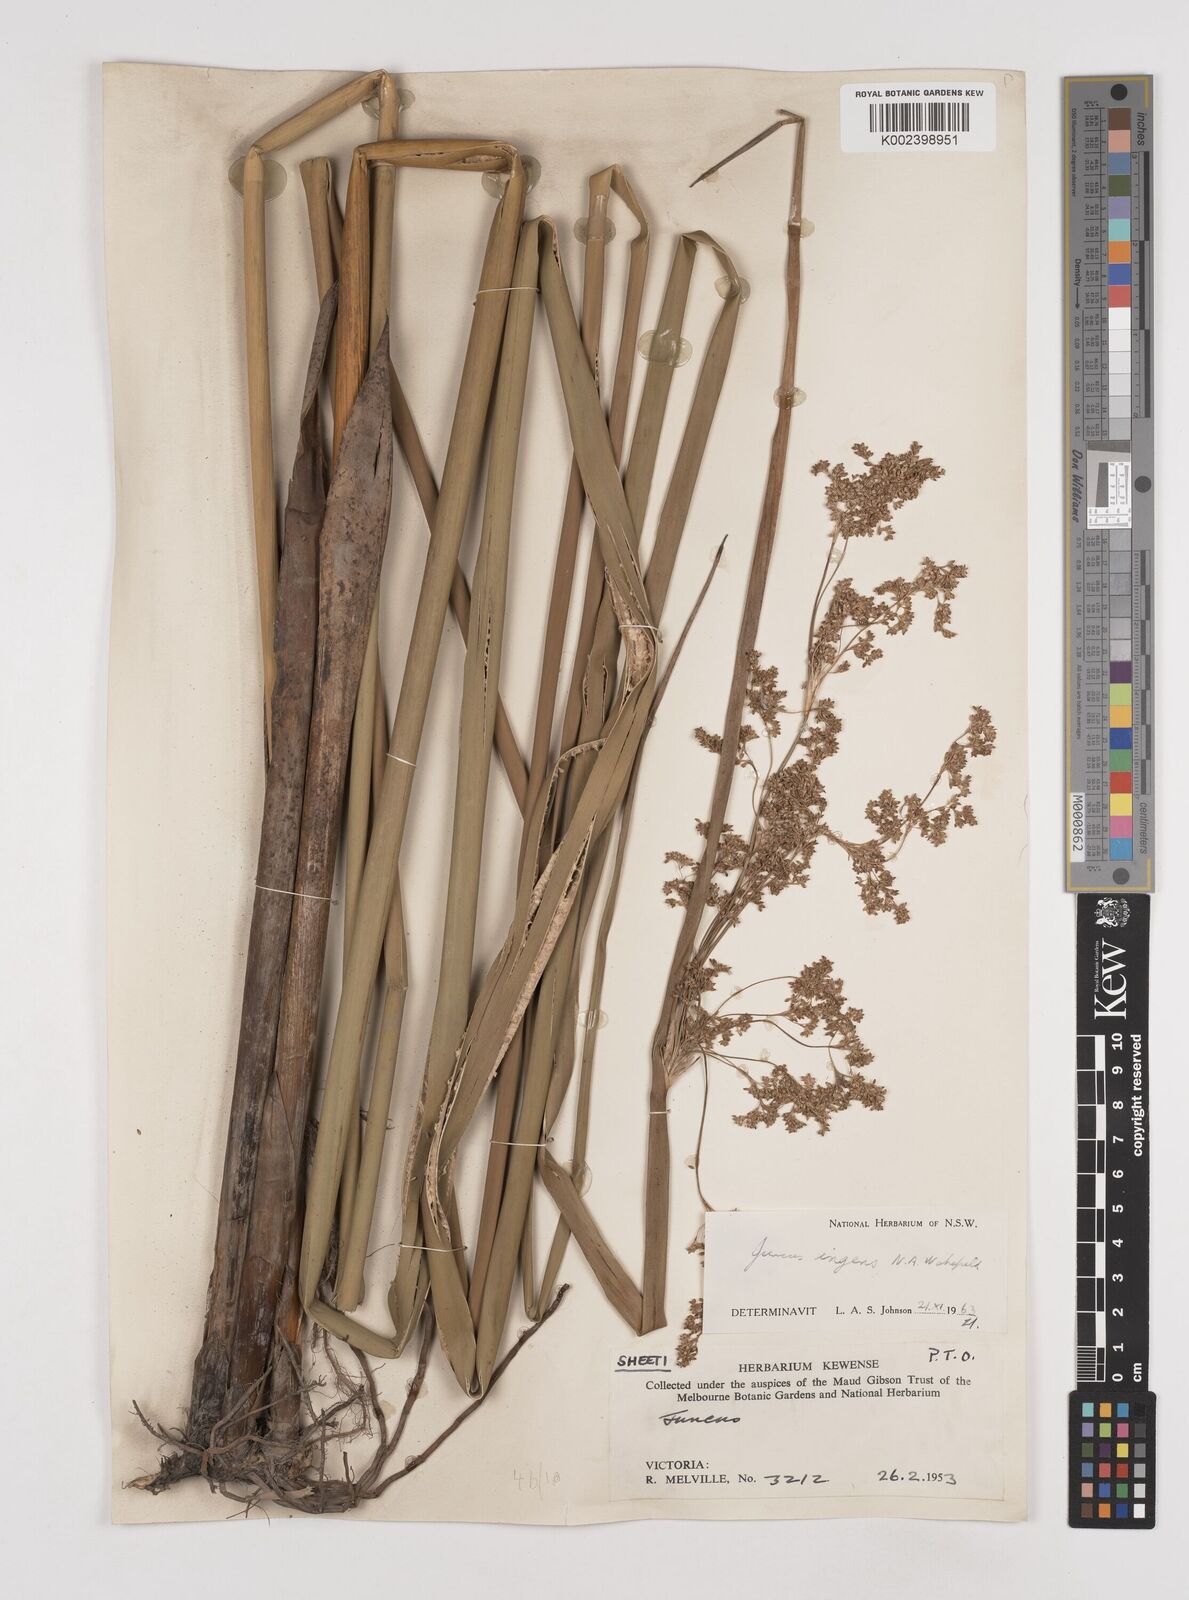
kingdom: Plantae
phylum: Tracheophyta
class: Liliopsida
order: Poales
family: Juncaceae
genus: Juncus
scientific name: Juncus ingens
